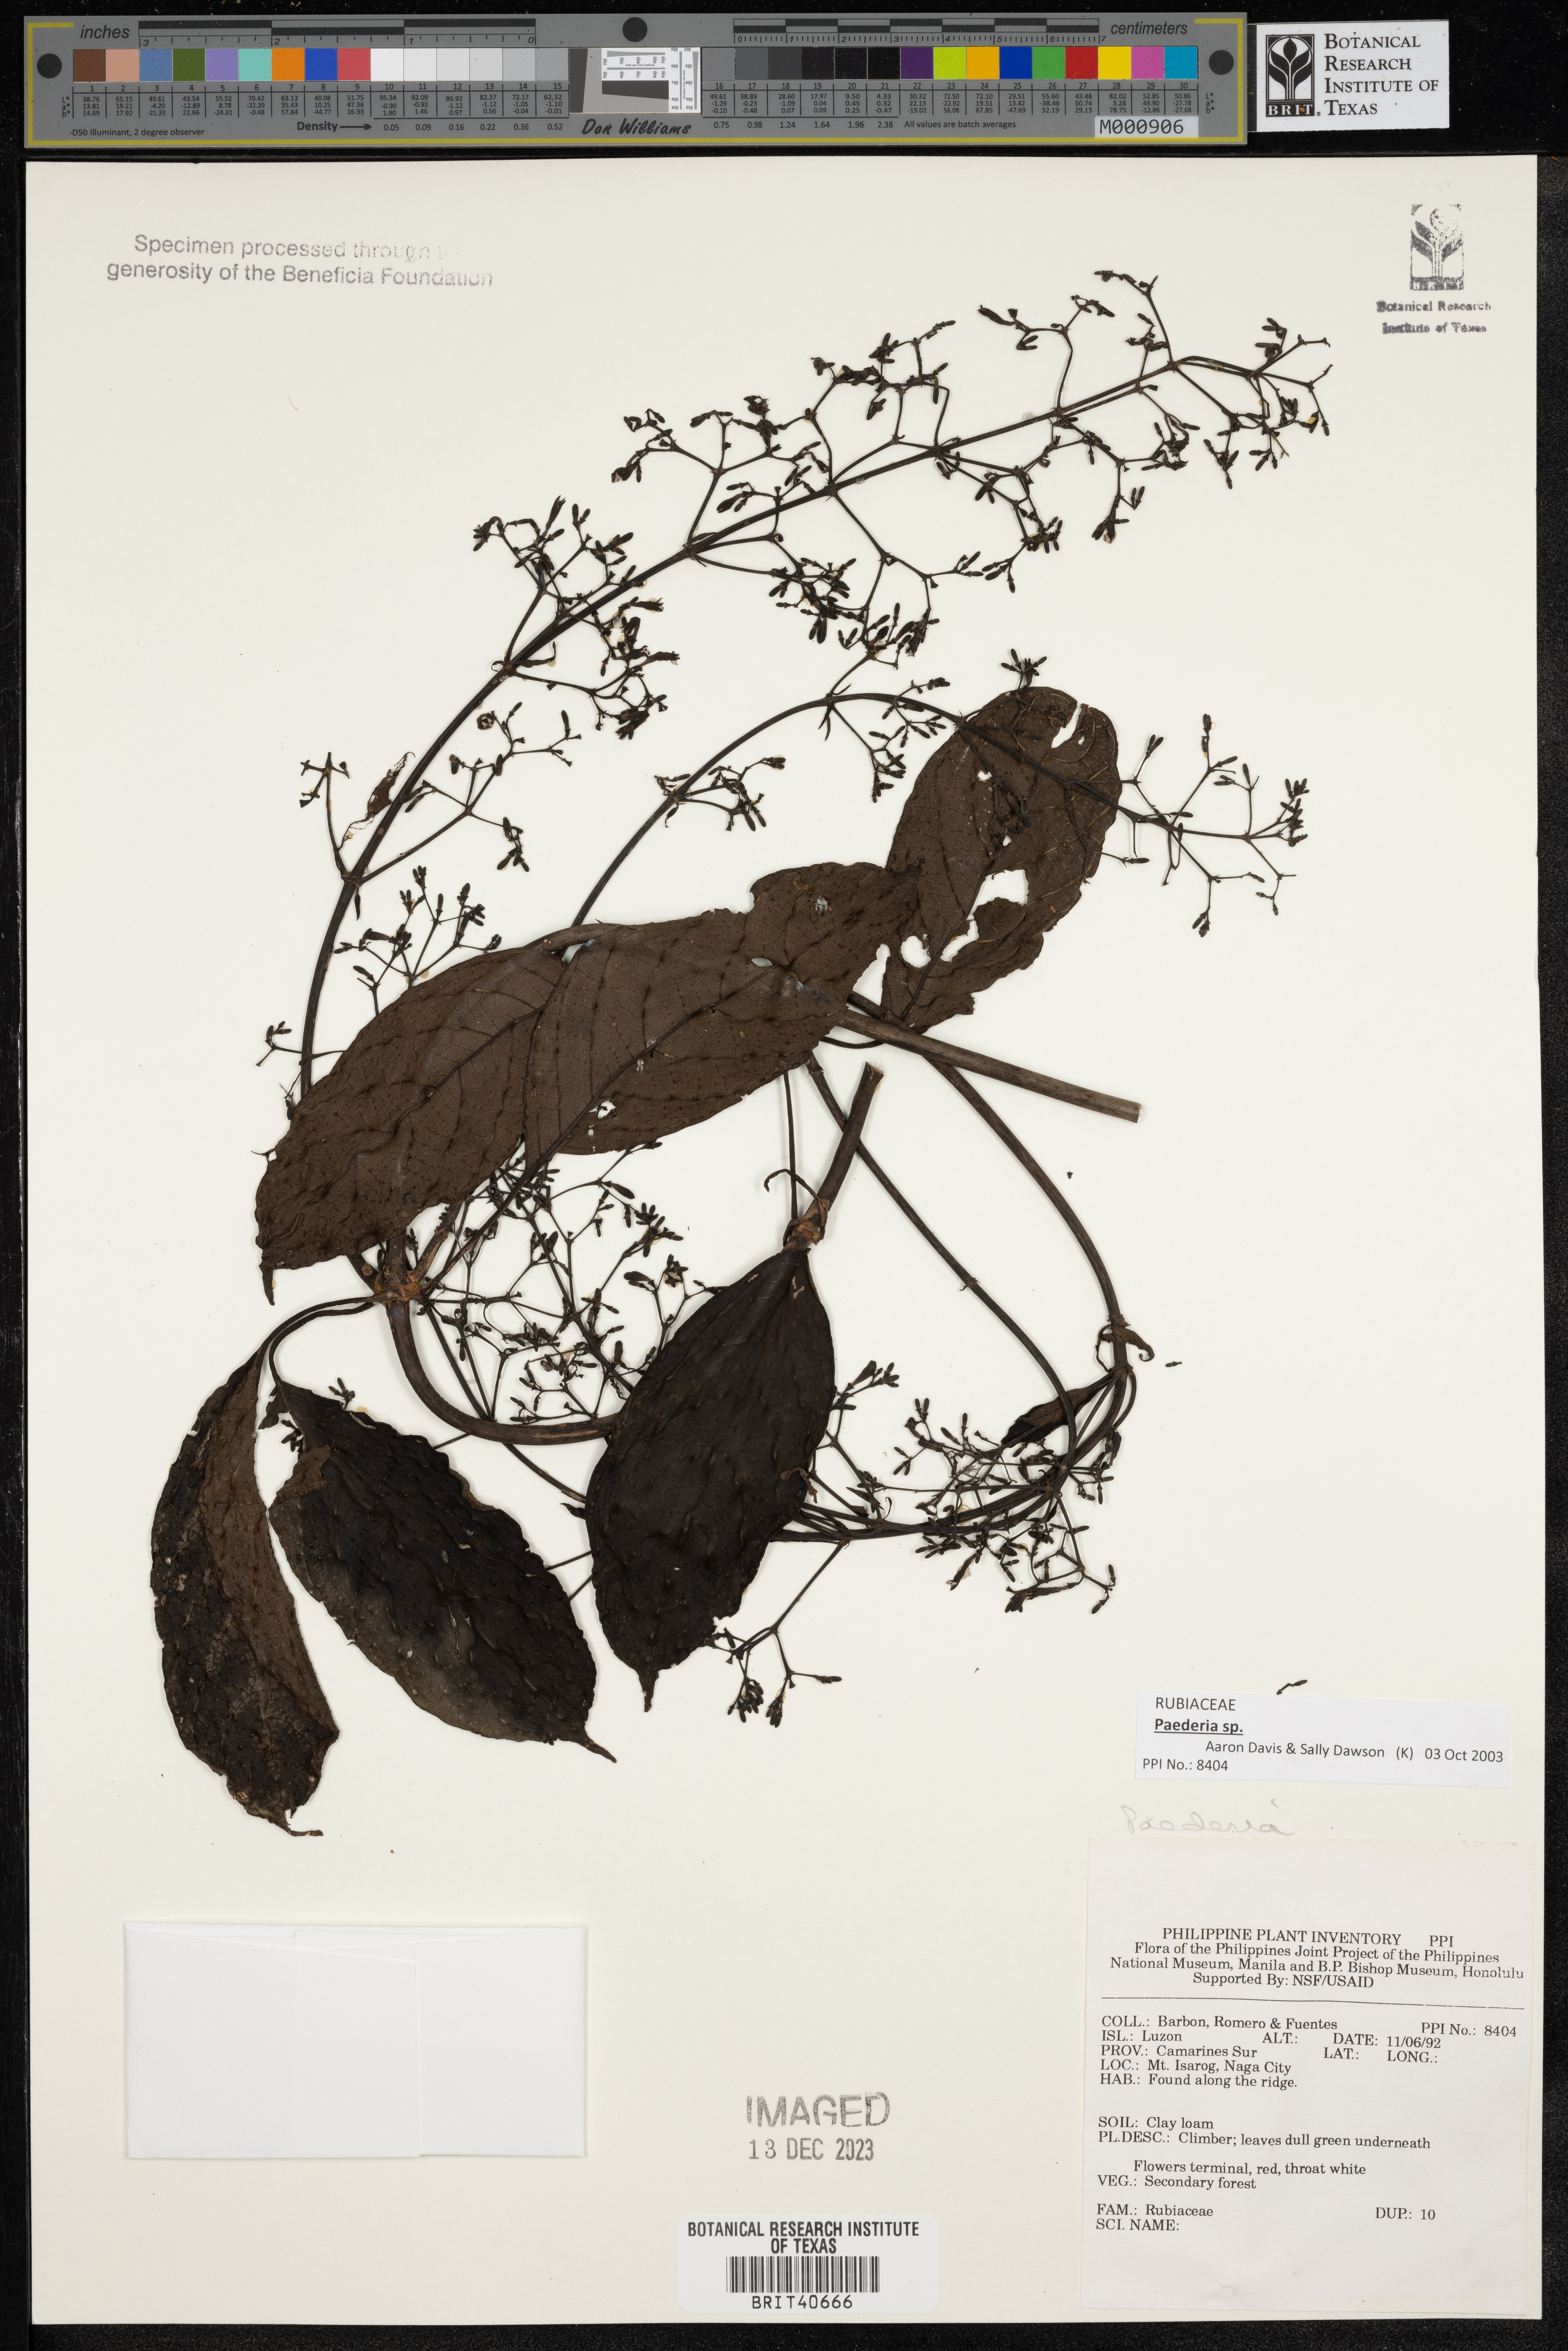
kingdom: Plantae
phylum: Tracheophyta
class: Magnoliopsida
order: Gentianales
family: Rubiaceae
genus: Paederia
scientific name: Paederia
